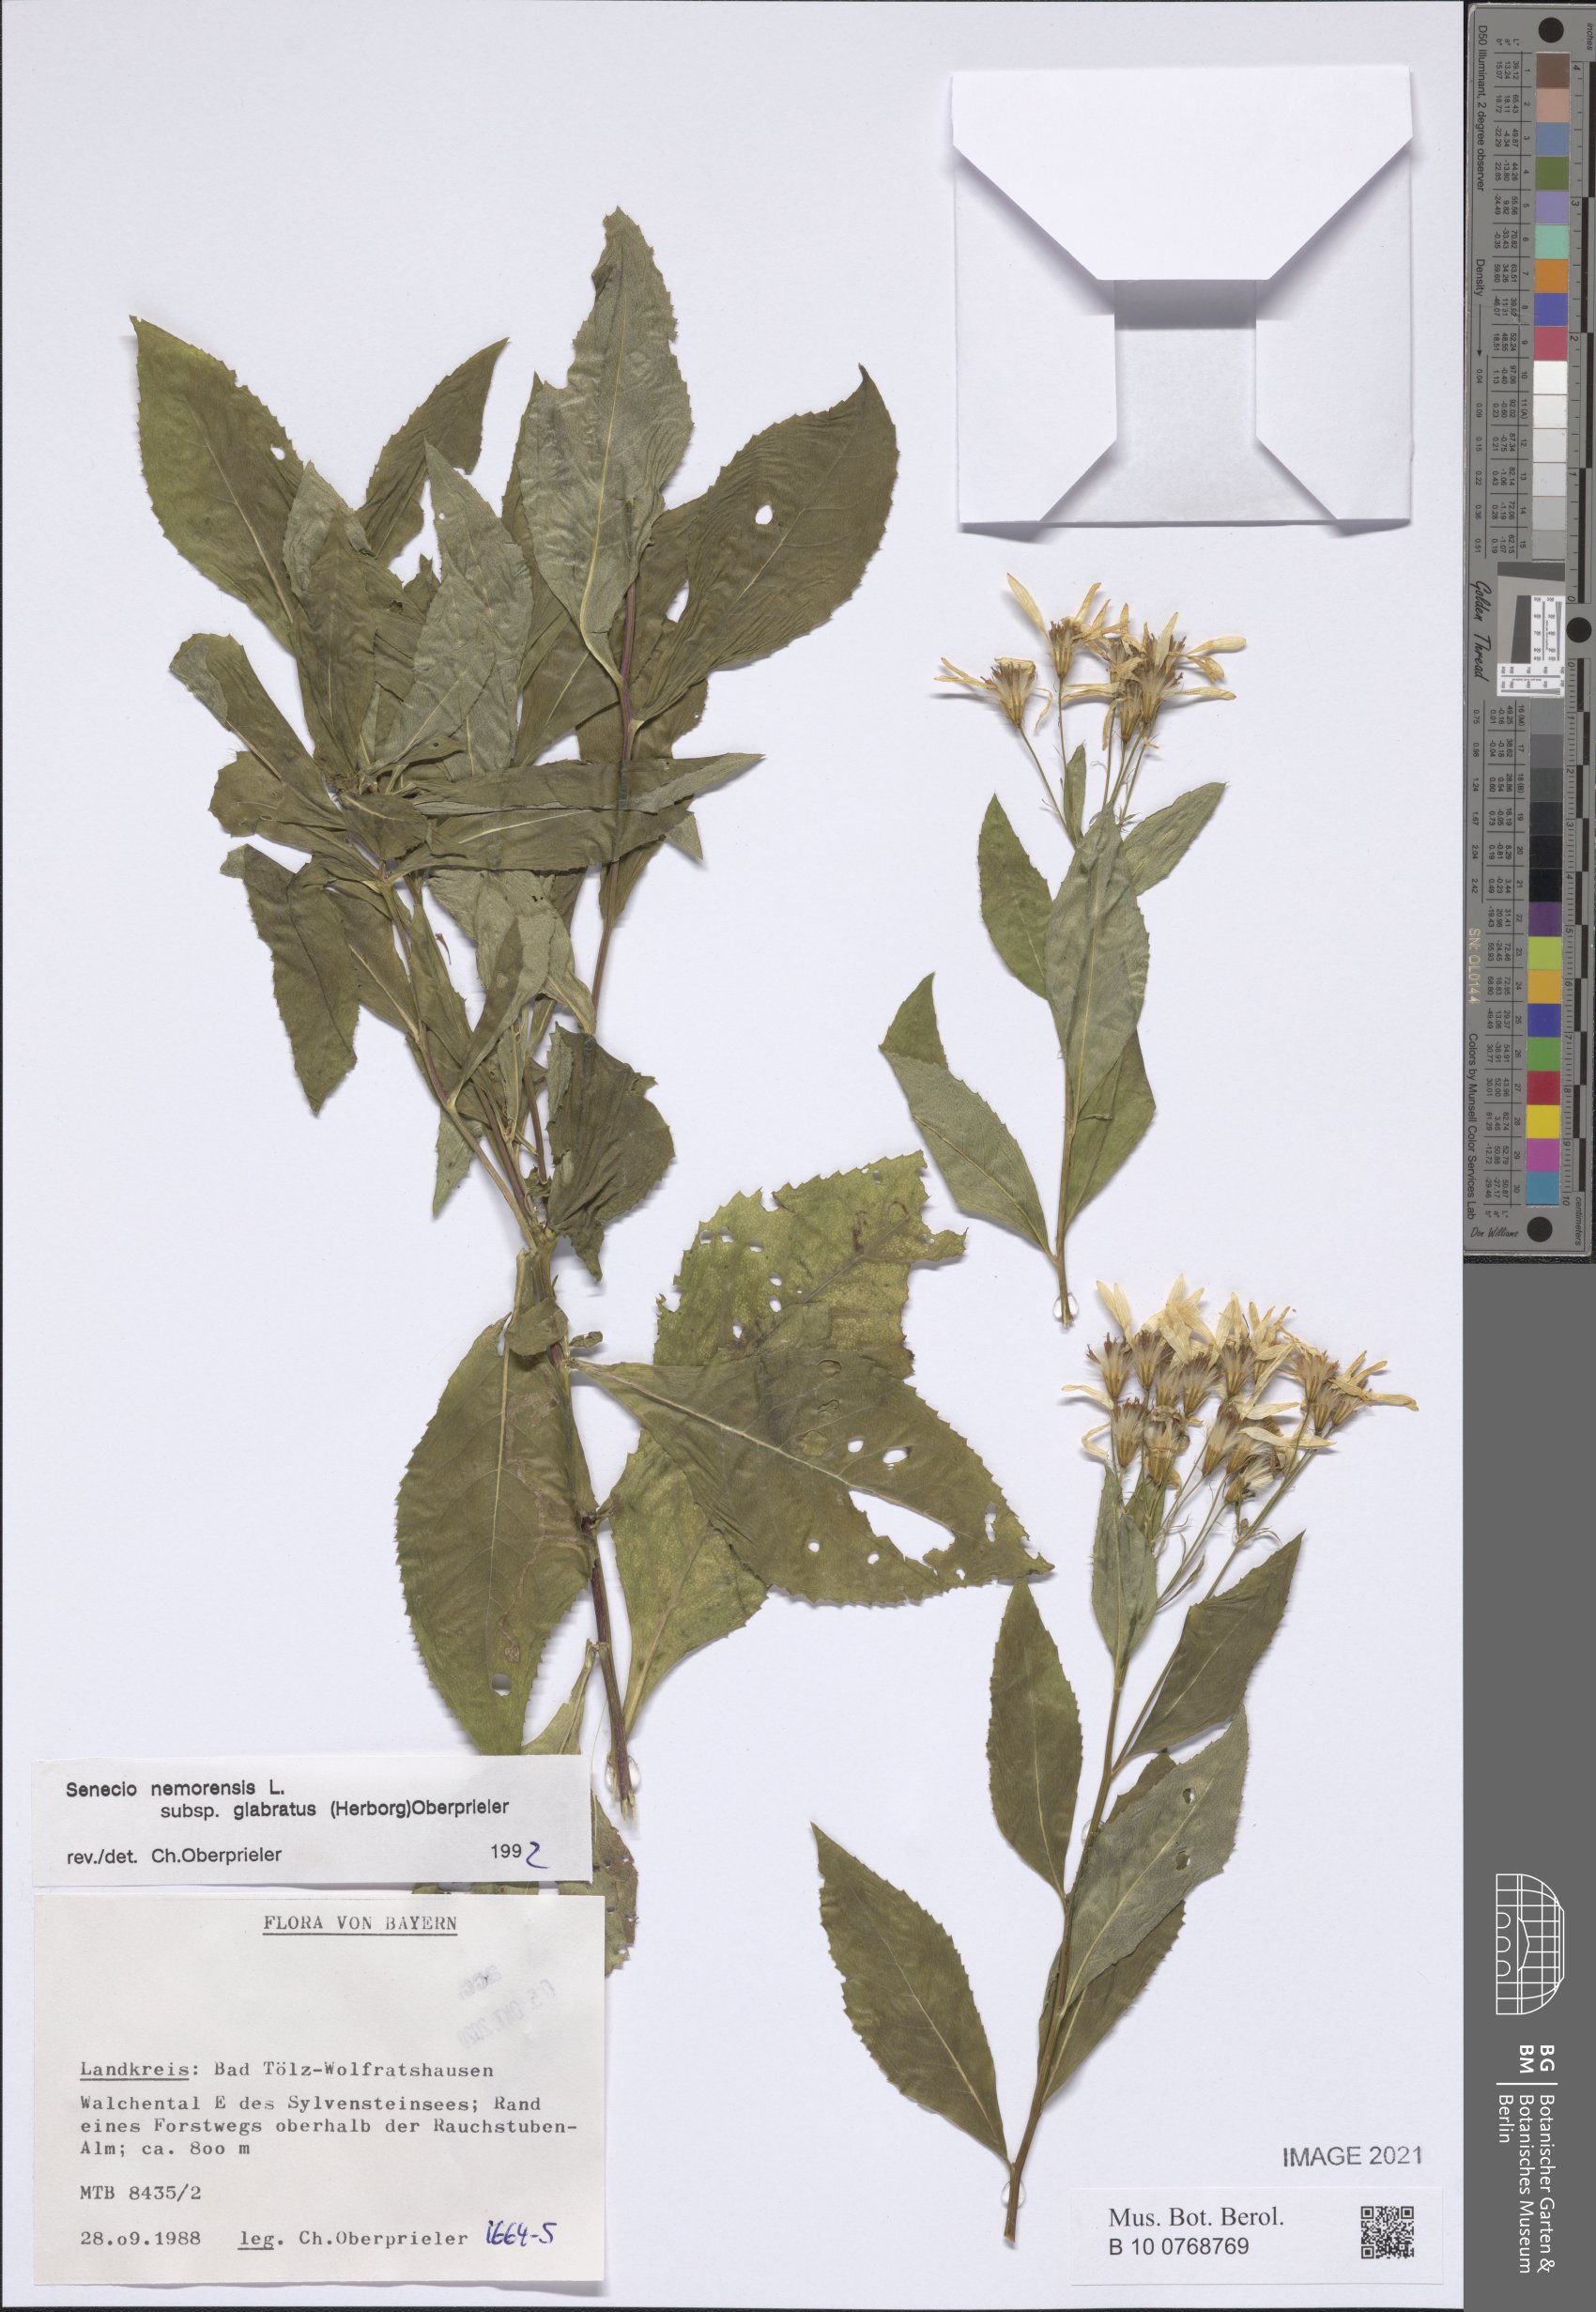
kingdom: Plantae
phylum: Tracheophyta
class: Magnoliopsida
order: Asterales
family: Asteraceae
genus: Senecio
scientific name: Senecio germanicus
